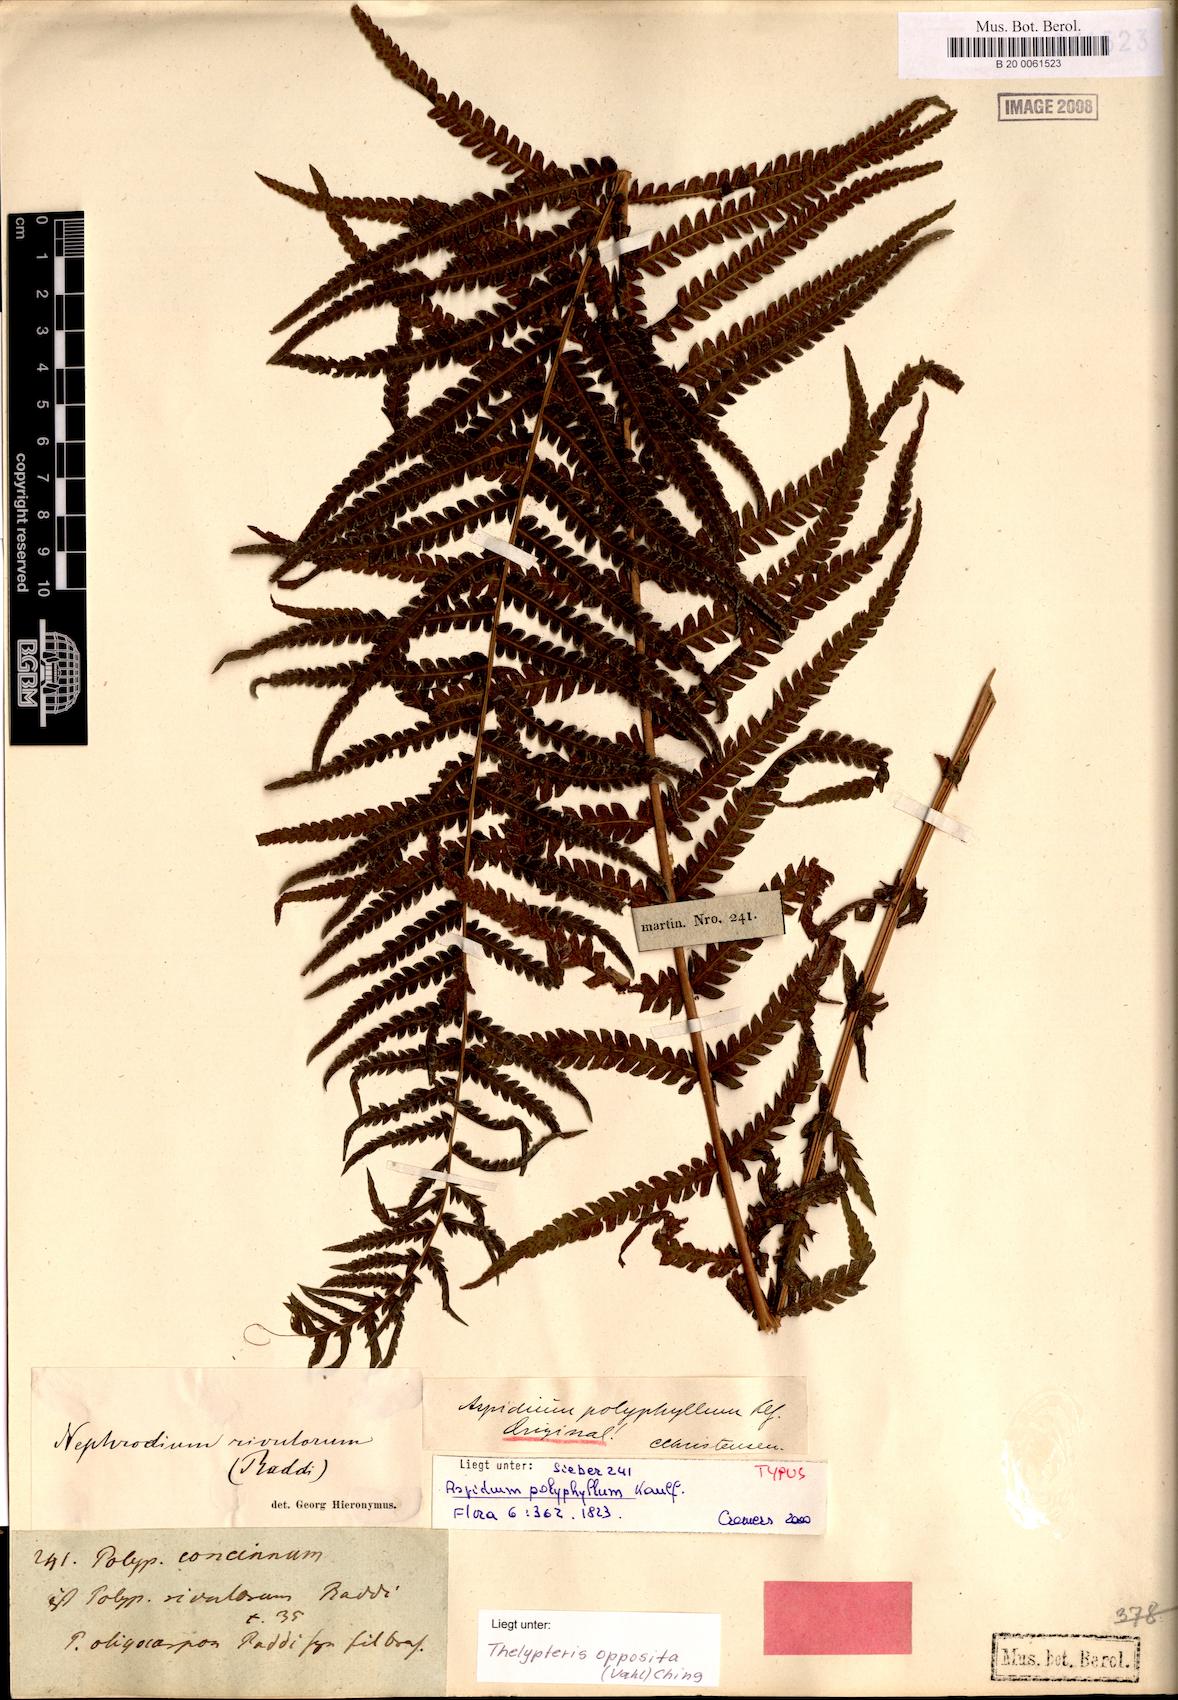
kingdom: Plantae
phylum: Tracheophyta
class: Polypodiopsida
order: Polypodiales
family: Thelypteridaceae
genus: Amauropelta
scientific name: Amauropelta opposita
